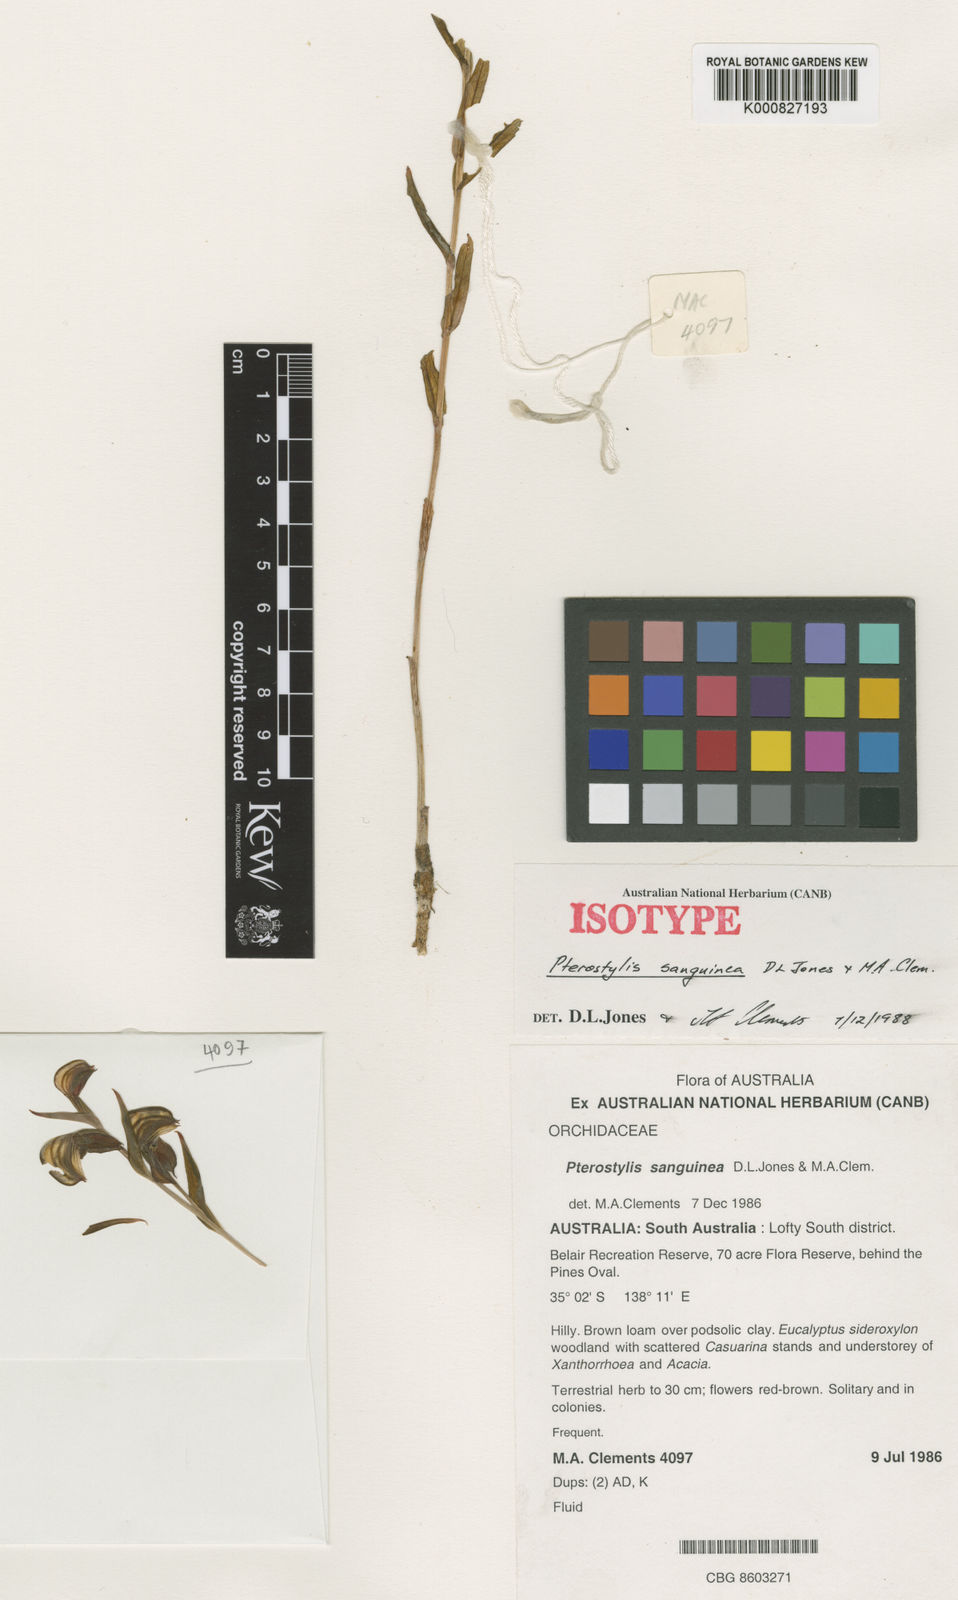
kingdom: Plantae
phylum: Tracheophyta
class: Liliopsida
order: Asparagales
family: Orchidaceae
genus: Pterostylis
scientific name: Pterostylis sanguinea
